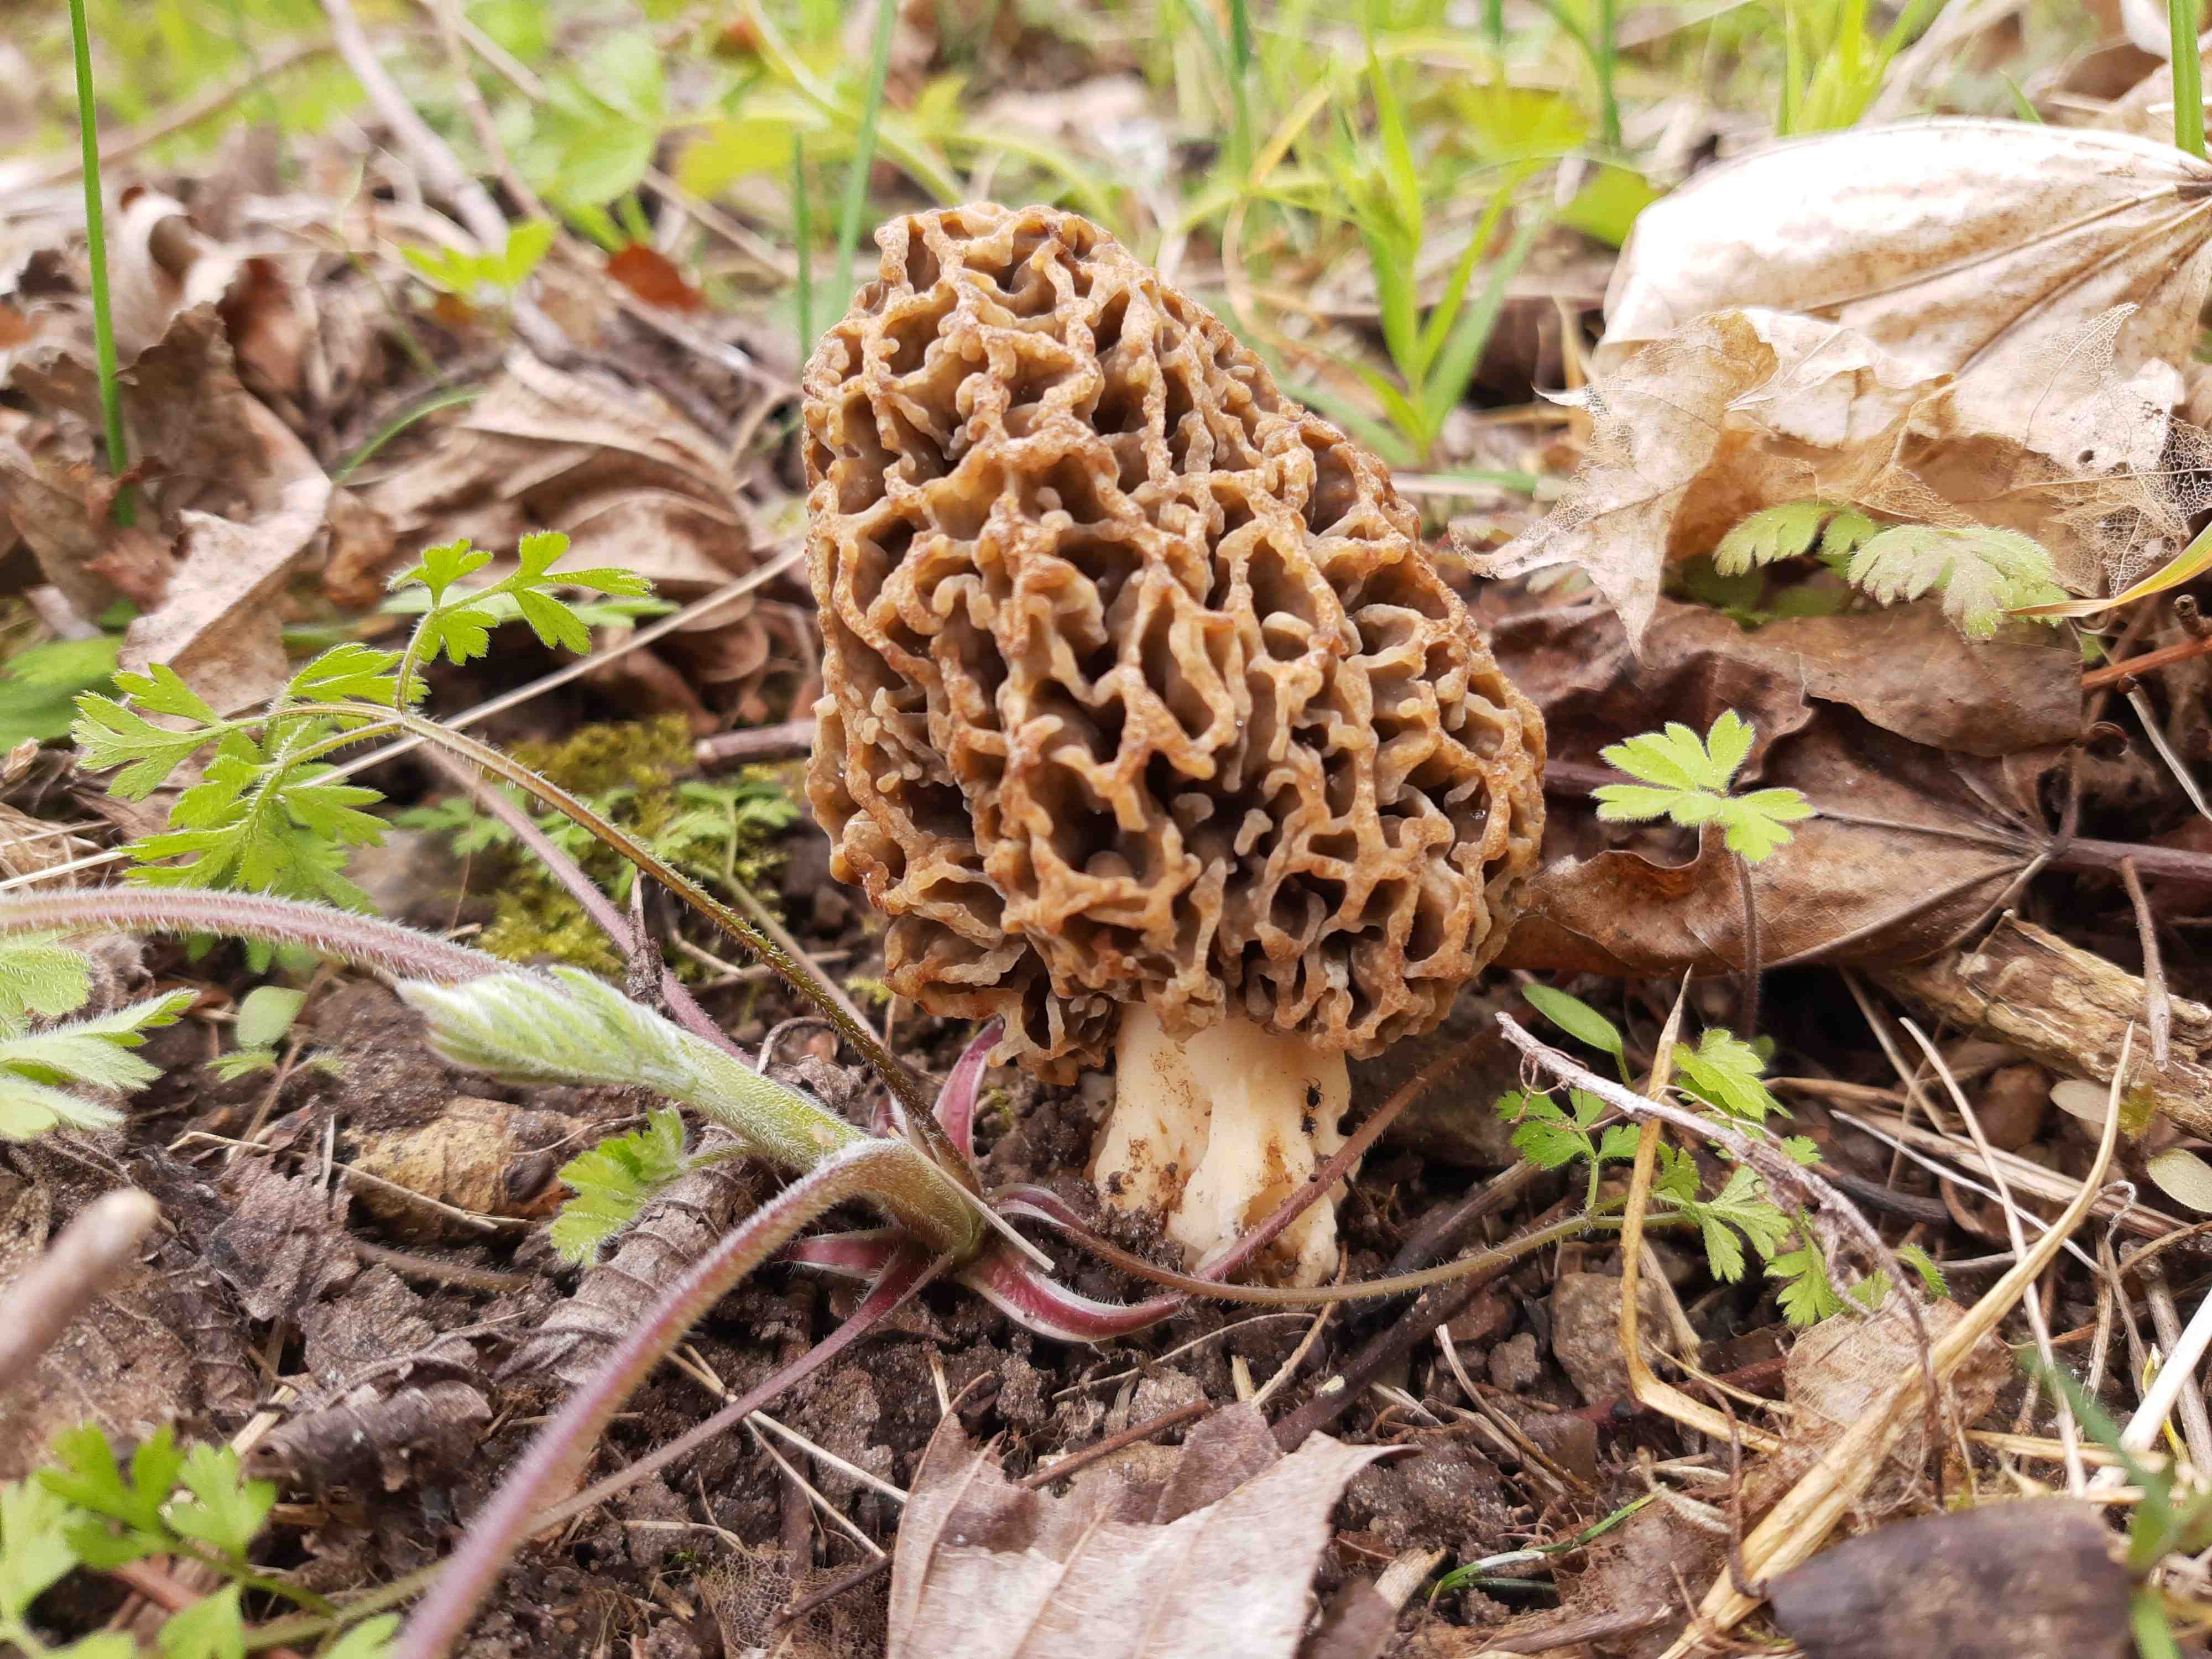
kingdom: Fungi
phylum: Ascomycota
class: Pezizomycetes
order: Pezizales
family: Morchellaceae
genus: Morchella
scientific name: Morchella esculenta
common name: almindelig morkel
